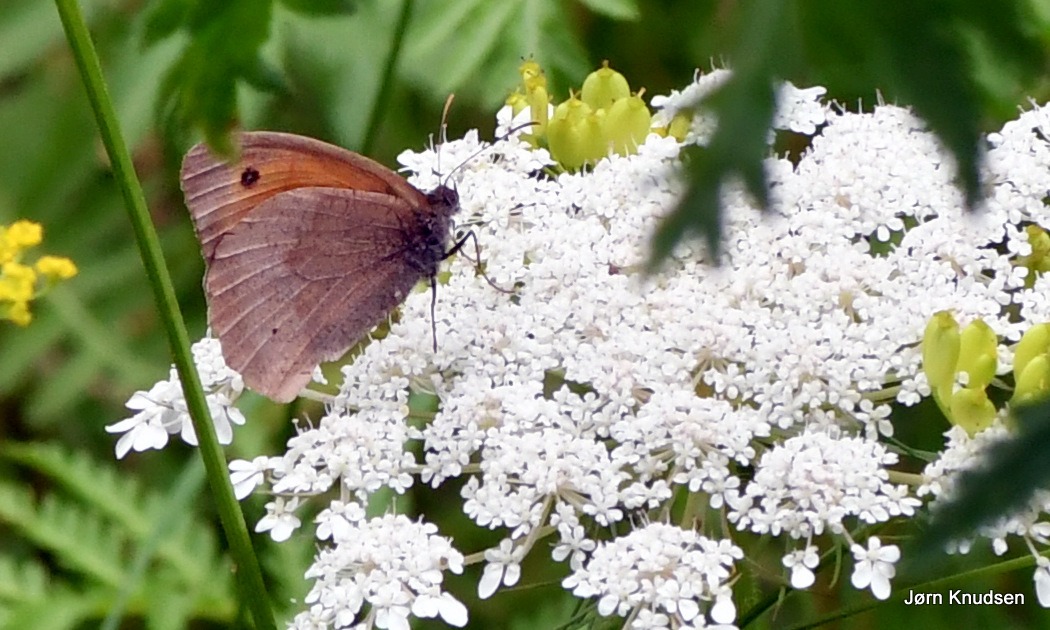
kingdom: Animalia
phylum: Arthropoda
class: Insecta
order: Lepidoptera
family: Nymphalidae
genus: Maniola
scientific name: Maniola jurtina
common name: Græsrandøje
